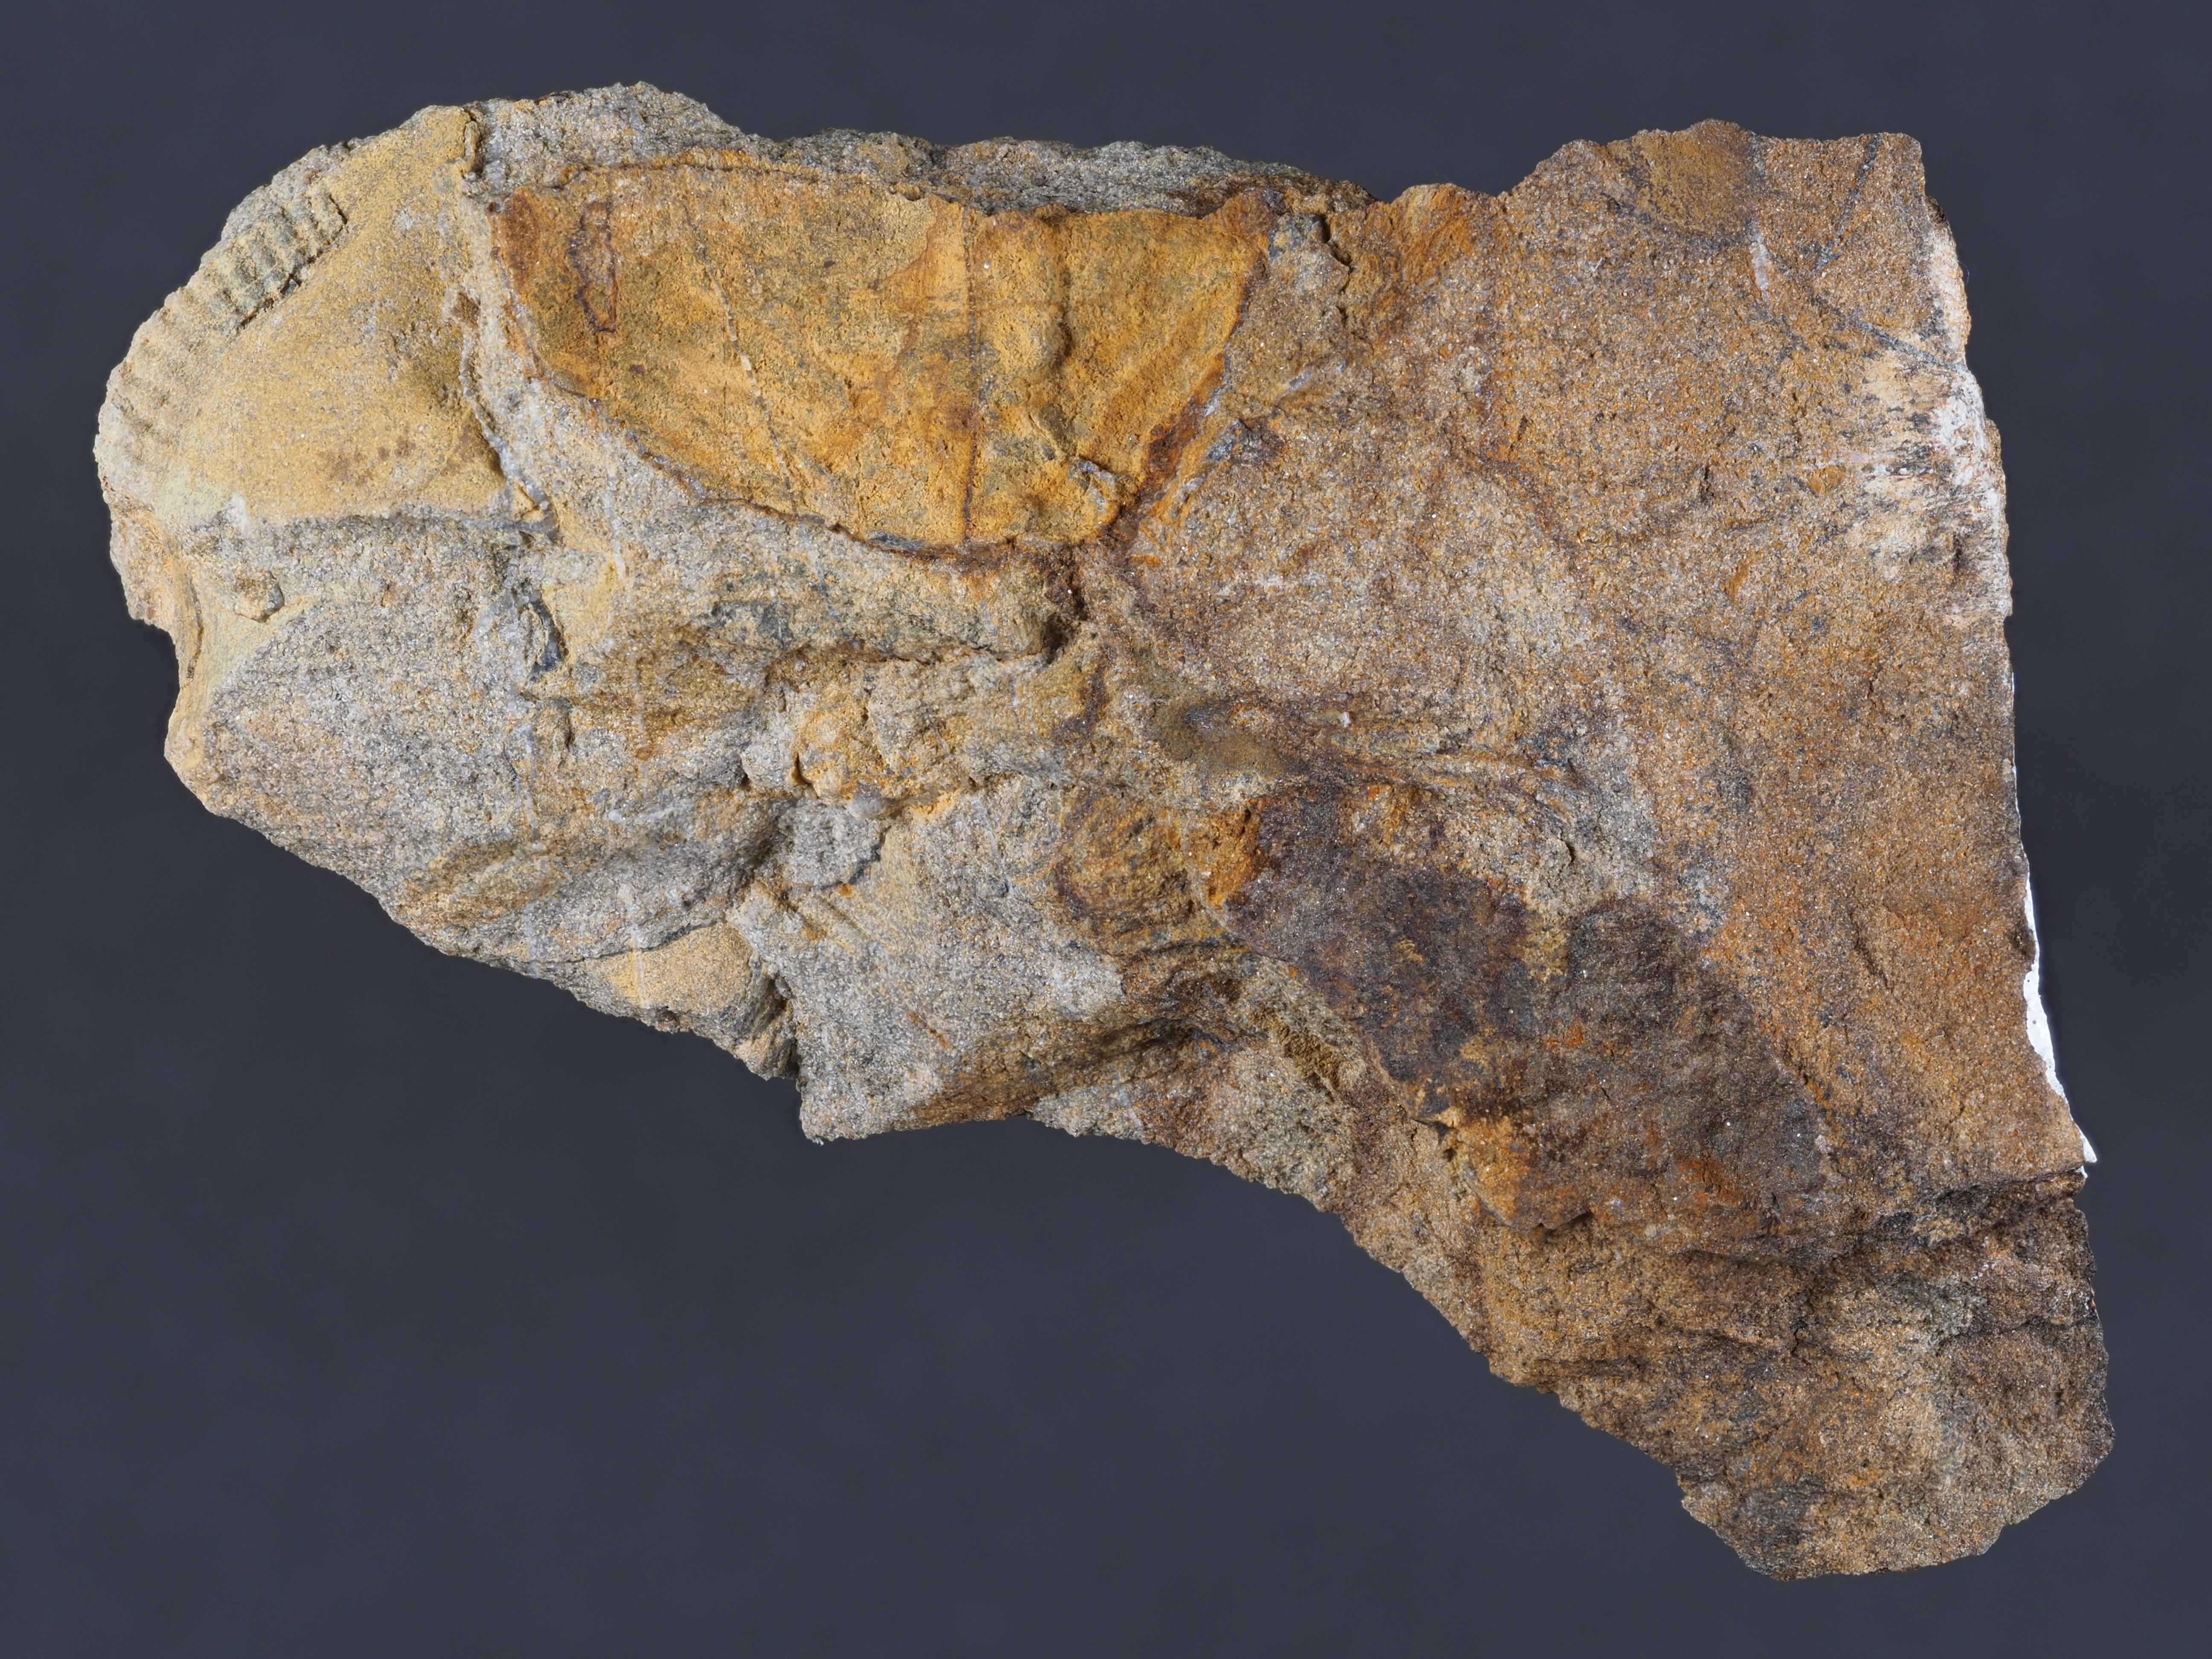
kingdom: Animalia
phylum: Cnidaria
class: Anthozoa
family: Micheliniidae
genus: Pleurodictyum
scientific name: Pleurodictyum
